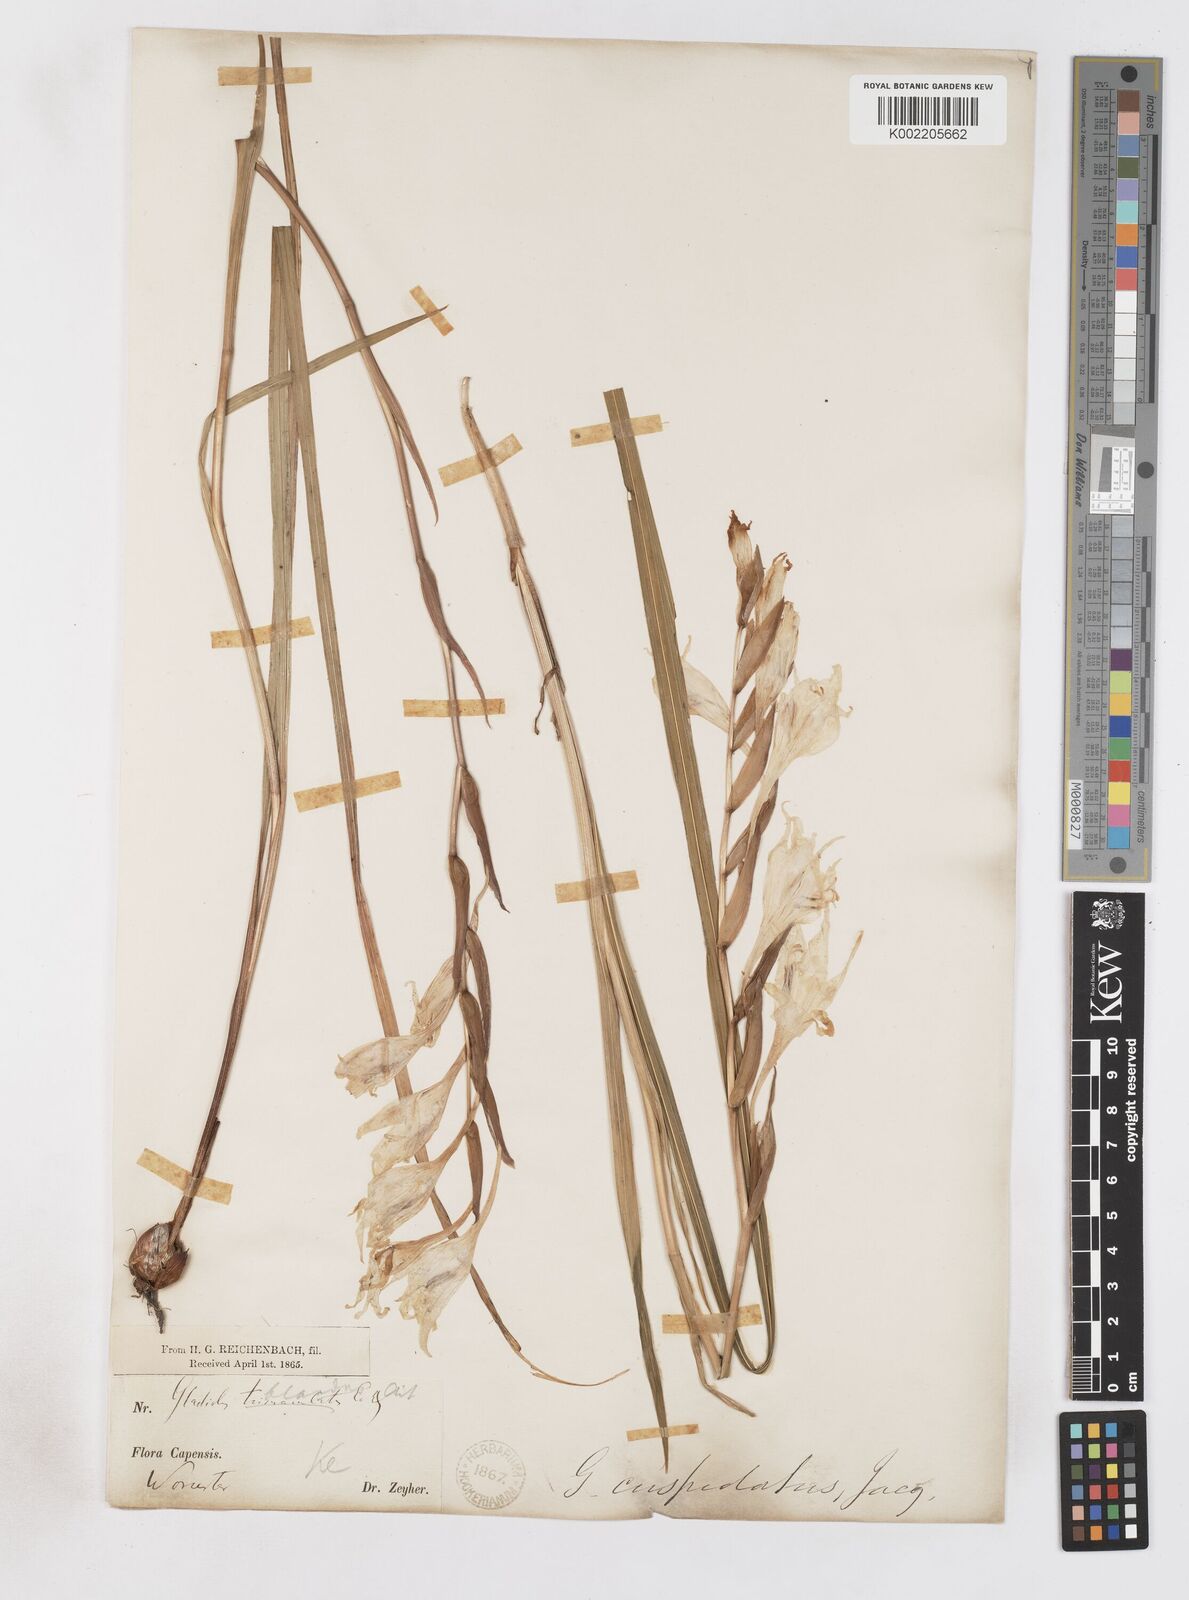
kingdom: Plantae
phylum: Tracheophyta
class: Liliopsida
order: Asparagales
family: Iridaceae
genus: Gladiolus
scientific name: Gladiolus undulatus
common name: Large painted-lady
